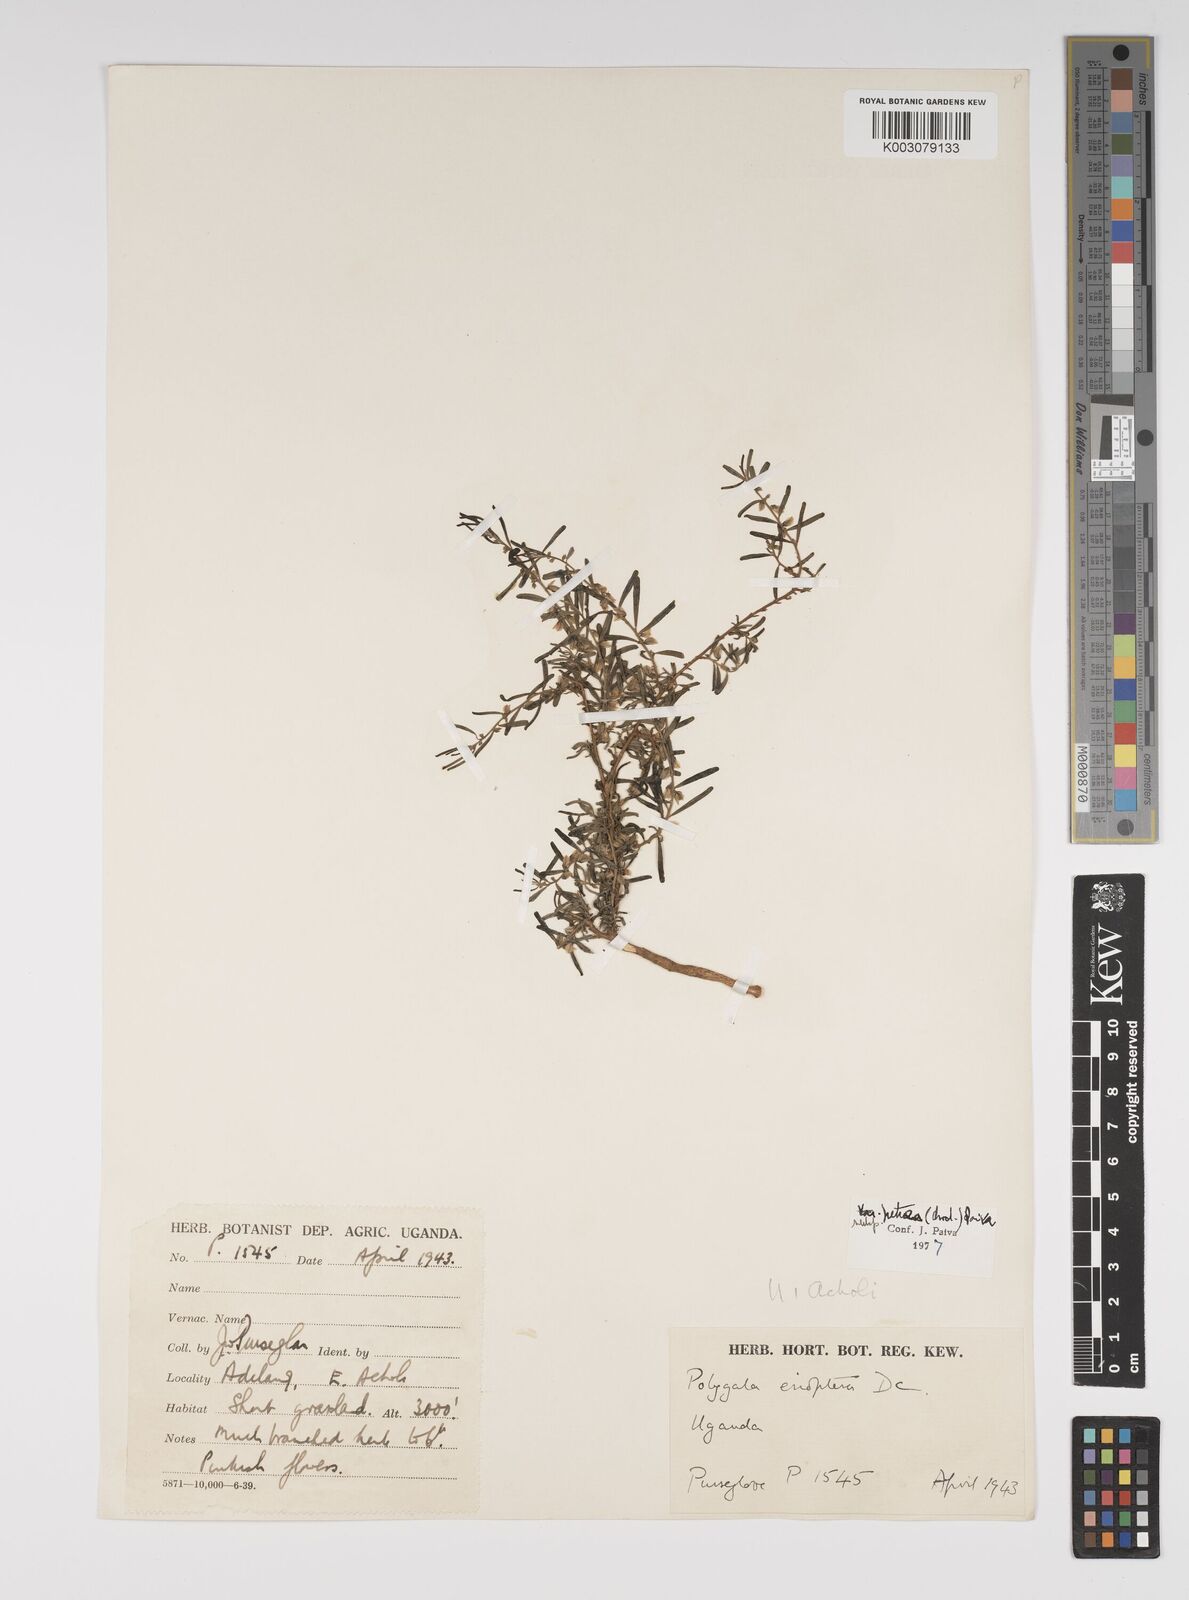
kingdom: Plantae
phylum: Tracheophyta
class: Magnoliopsida
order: Fabales
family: Polygalaceae
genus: Polygala
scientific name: Polygala erioptera
